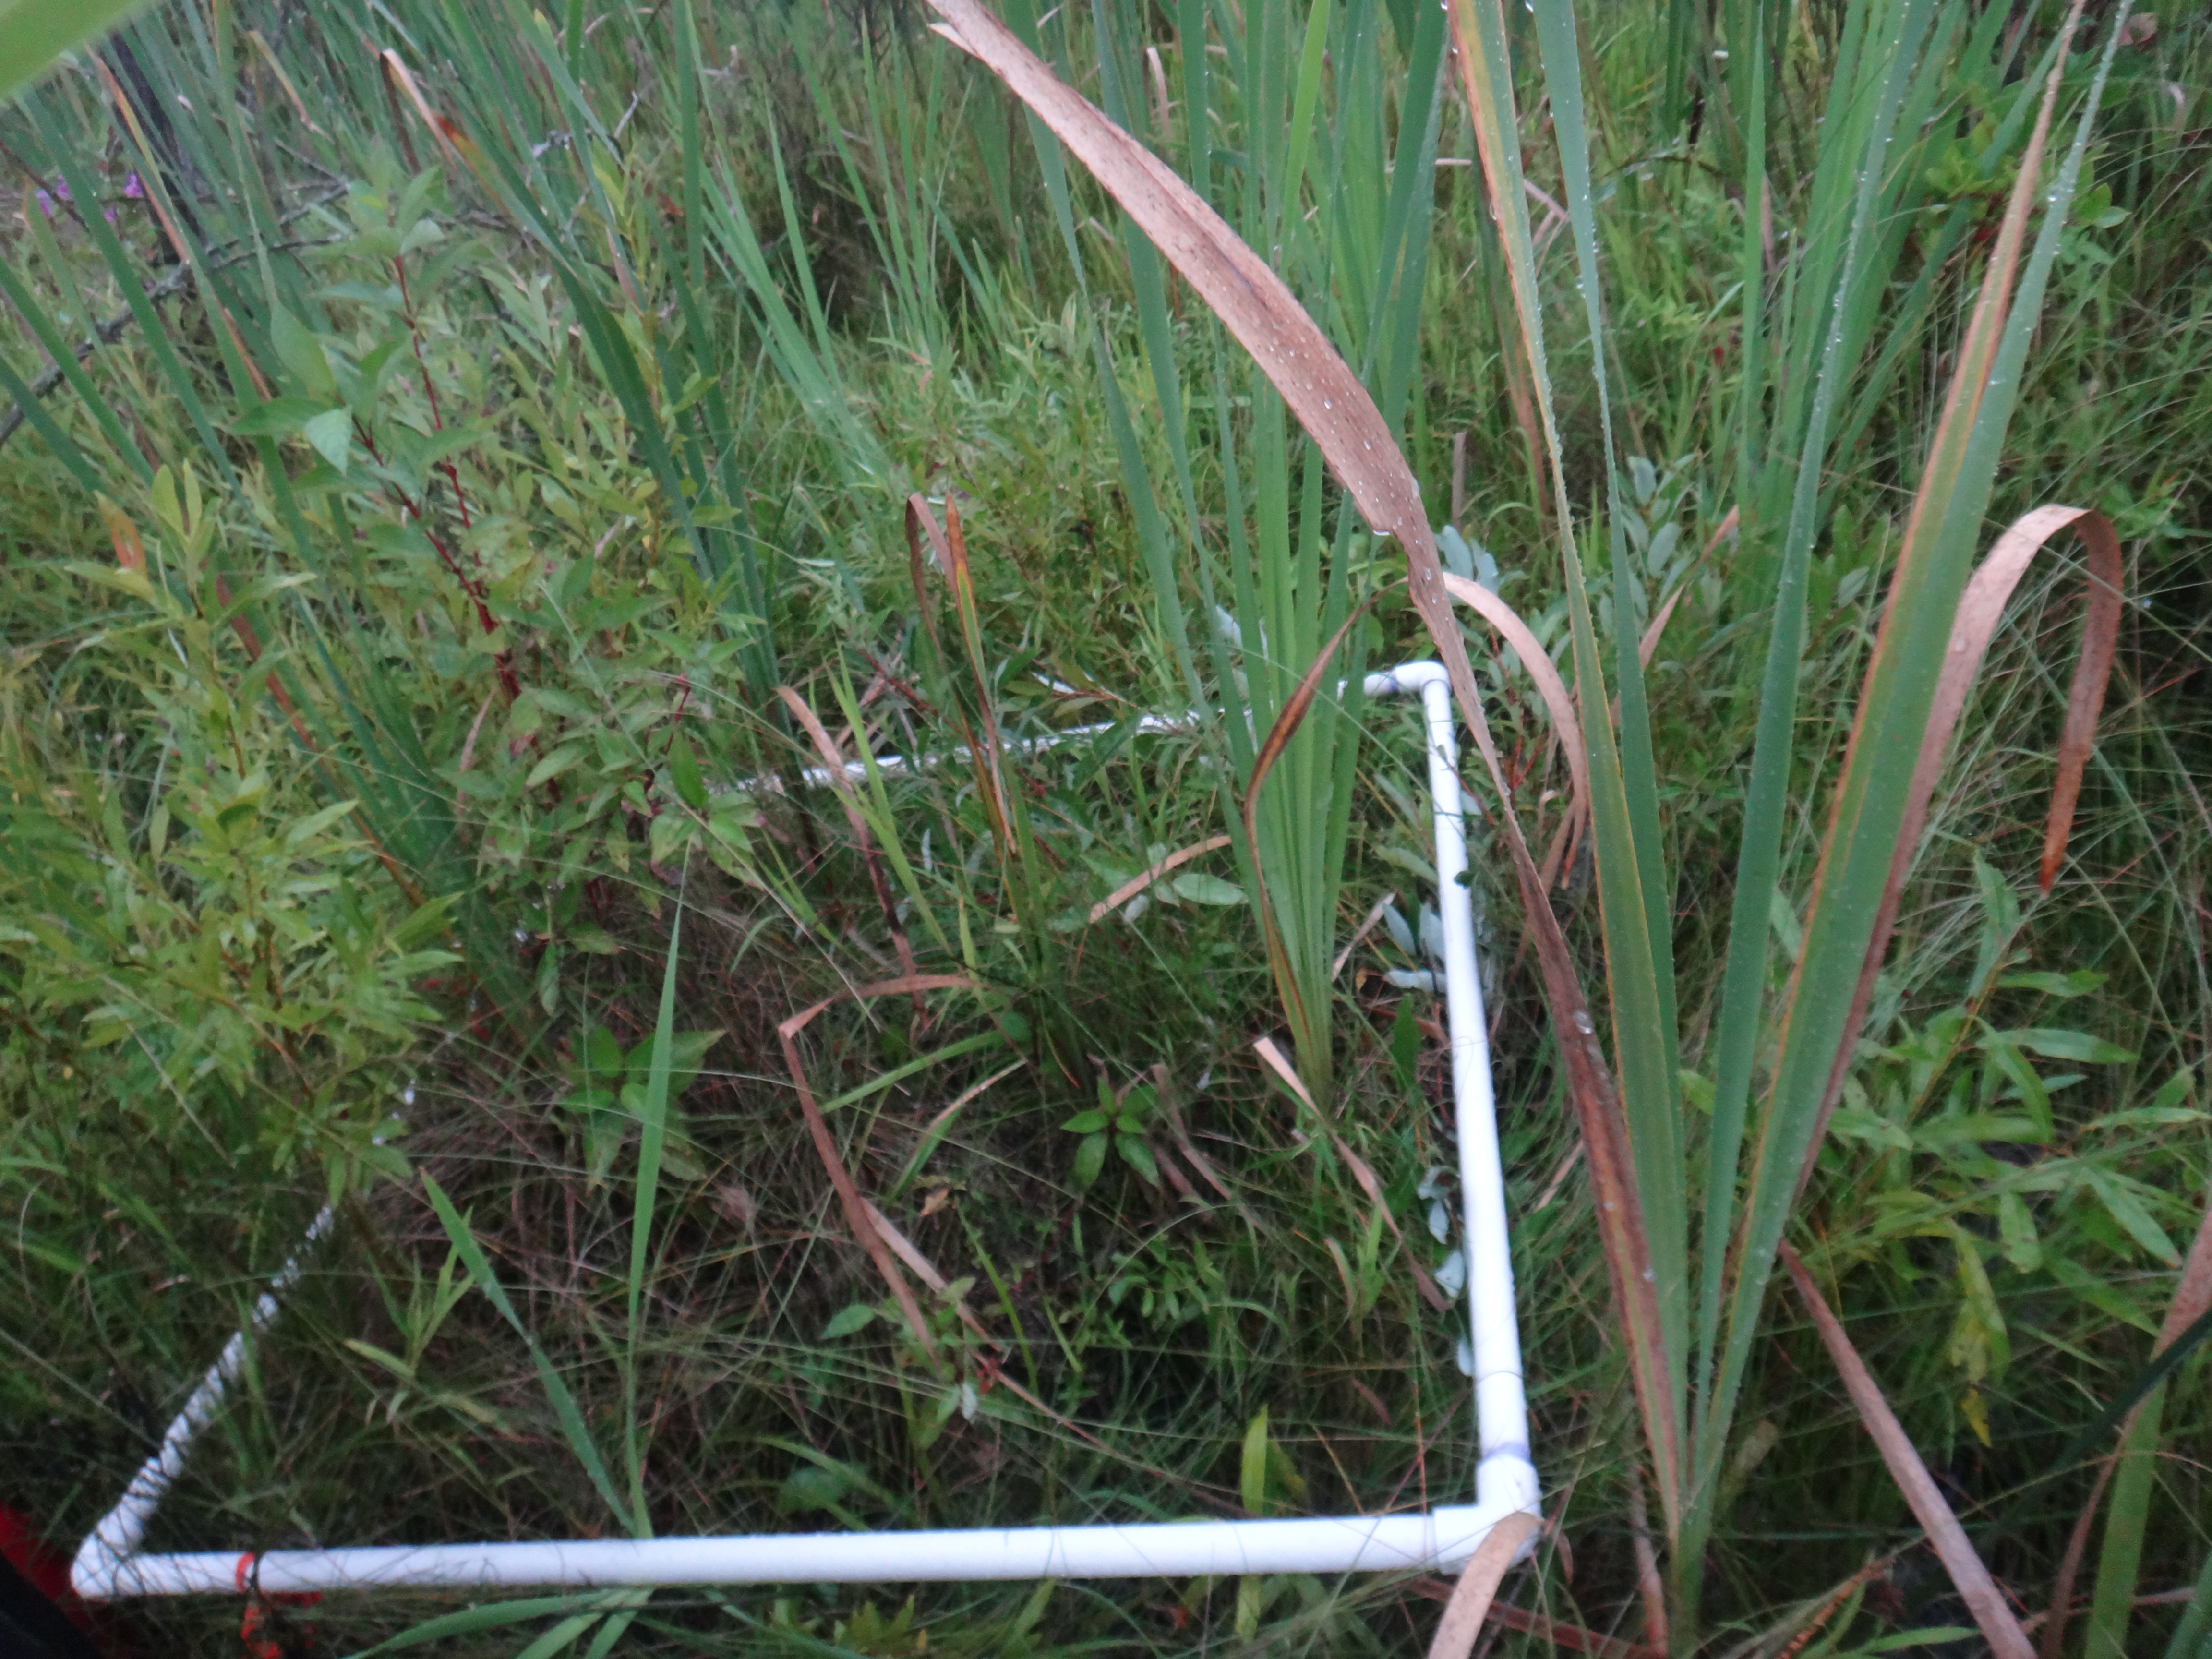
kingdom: Plantae
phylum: Tracheophyta
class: Magnoliopsida
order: Asterales
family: Asteraceae
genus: Bidens
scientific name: Bidens trichosperma
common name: Crowned beggarticks
